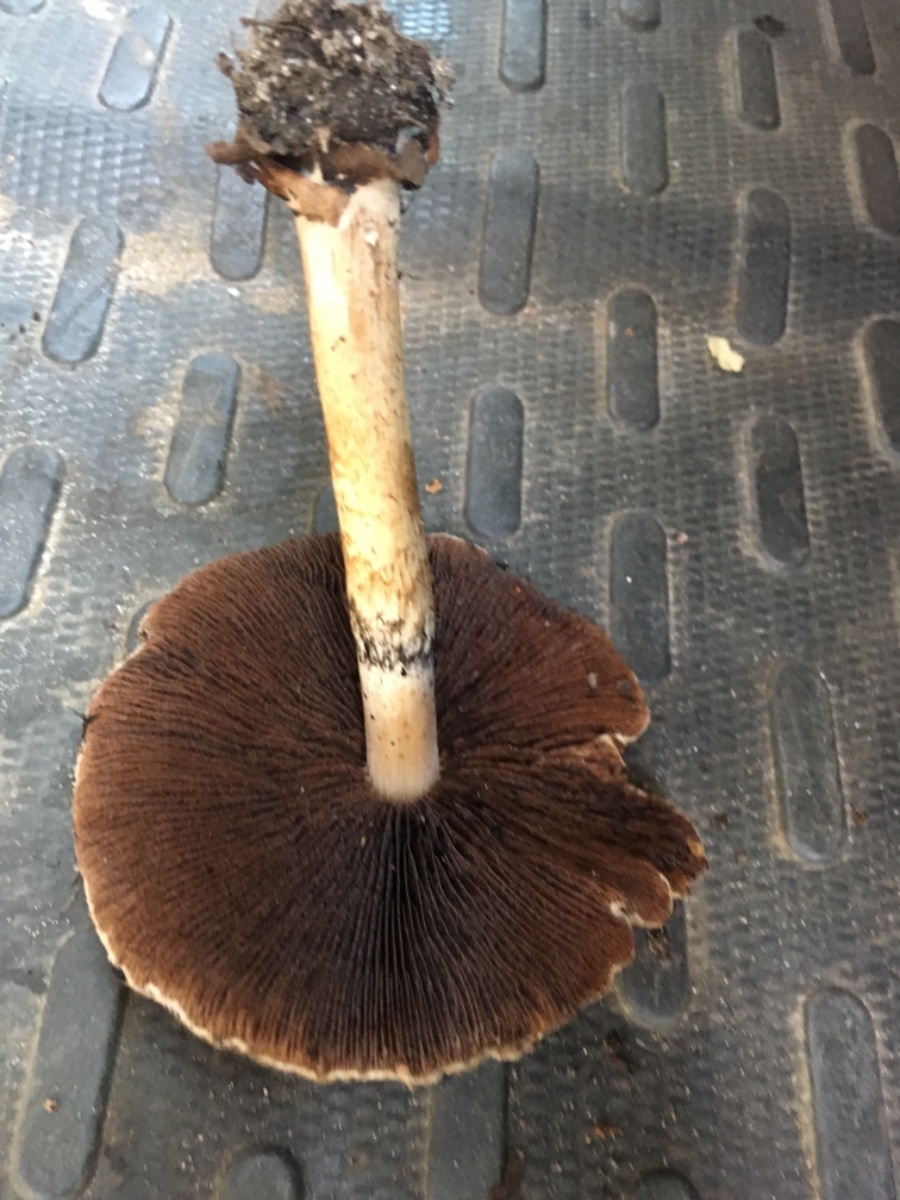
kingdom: Fungi
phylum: Basidiomycota
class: Agaricomycetes
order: Agaricales
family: Psathyrellaceae
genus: Lacrymaria
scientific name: Lacrymaria lacrymabunda
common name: grædende mørkhat
